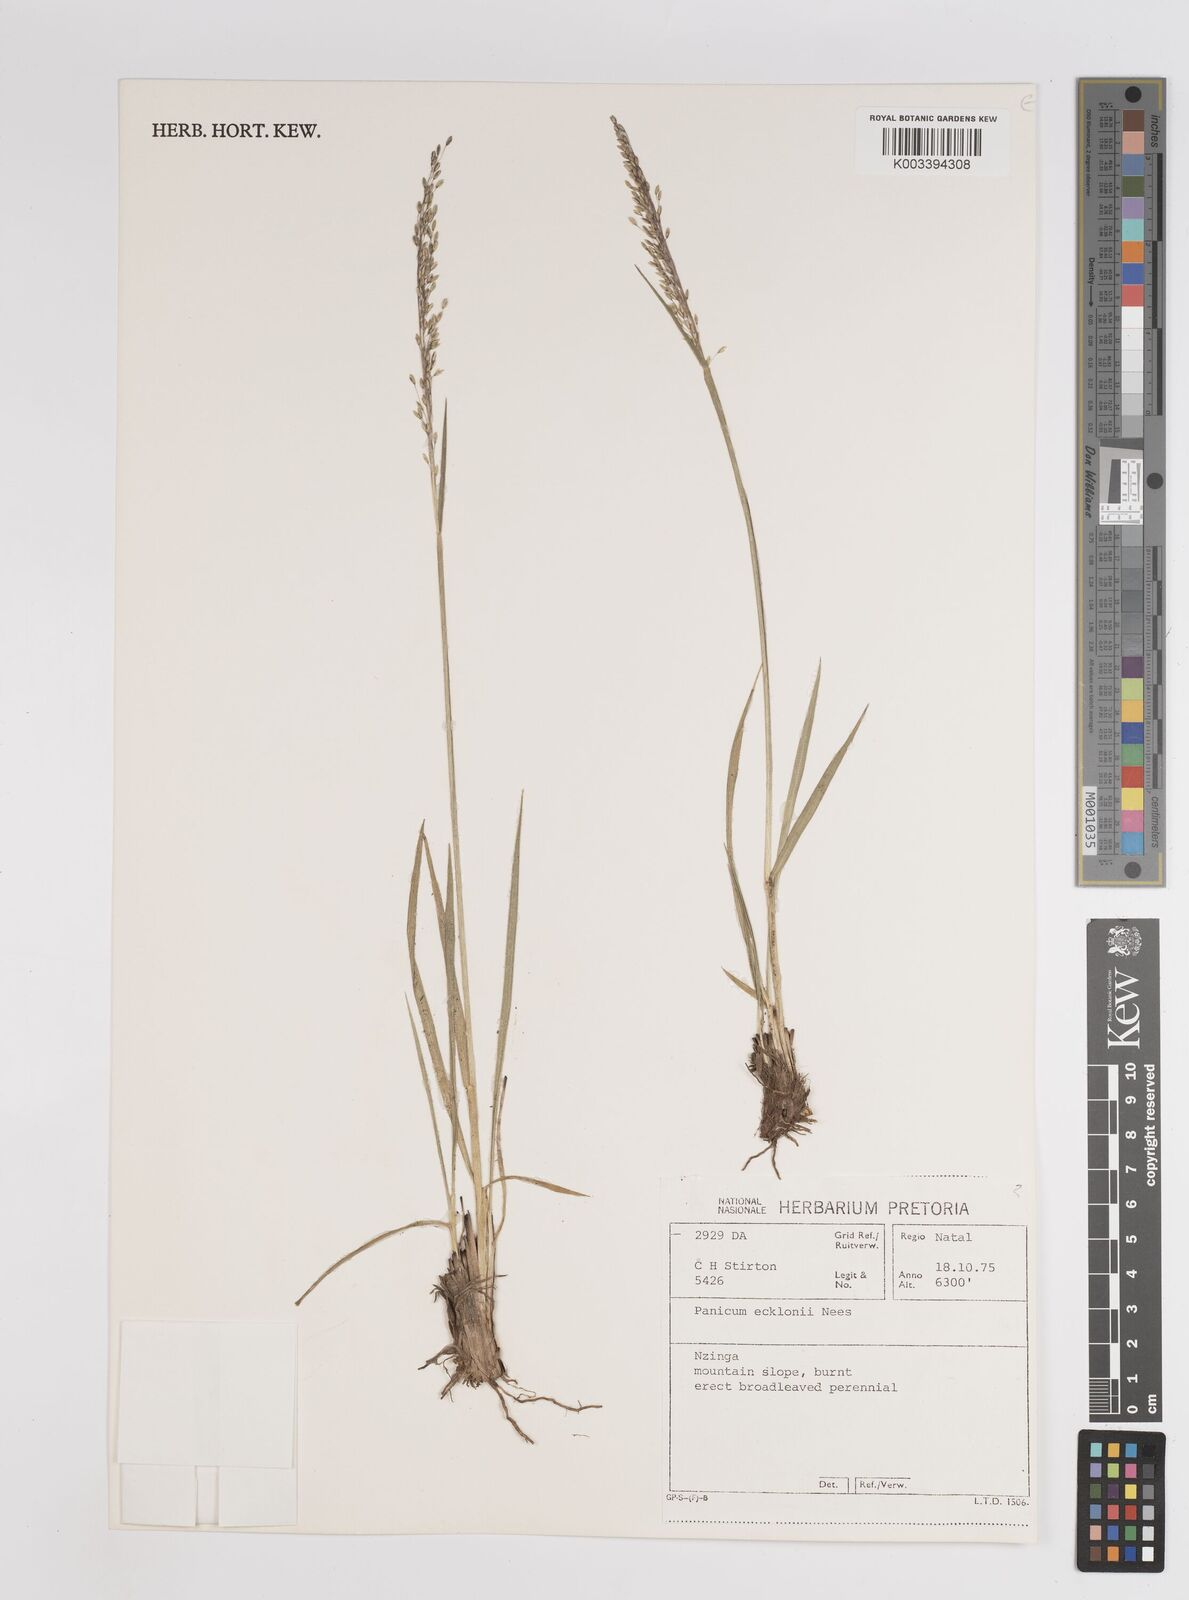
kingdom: Plantae
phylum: Tracheophyta
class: Liliopsida
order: Poales
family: Poaceae
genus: Adenochloa
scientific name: Adenochloa ecklonii
